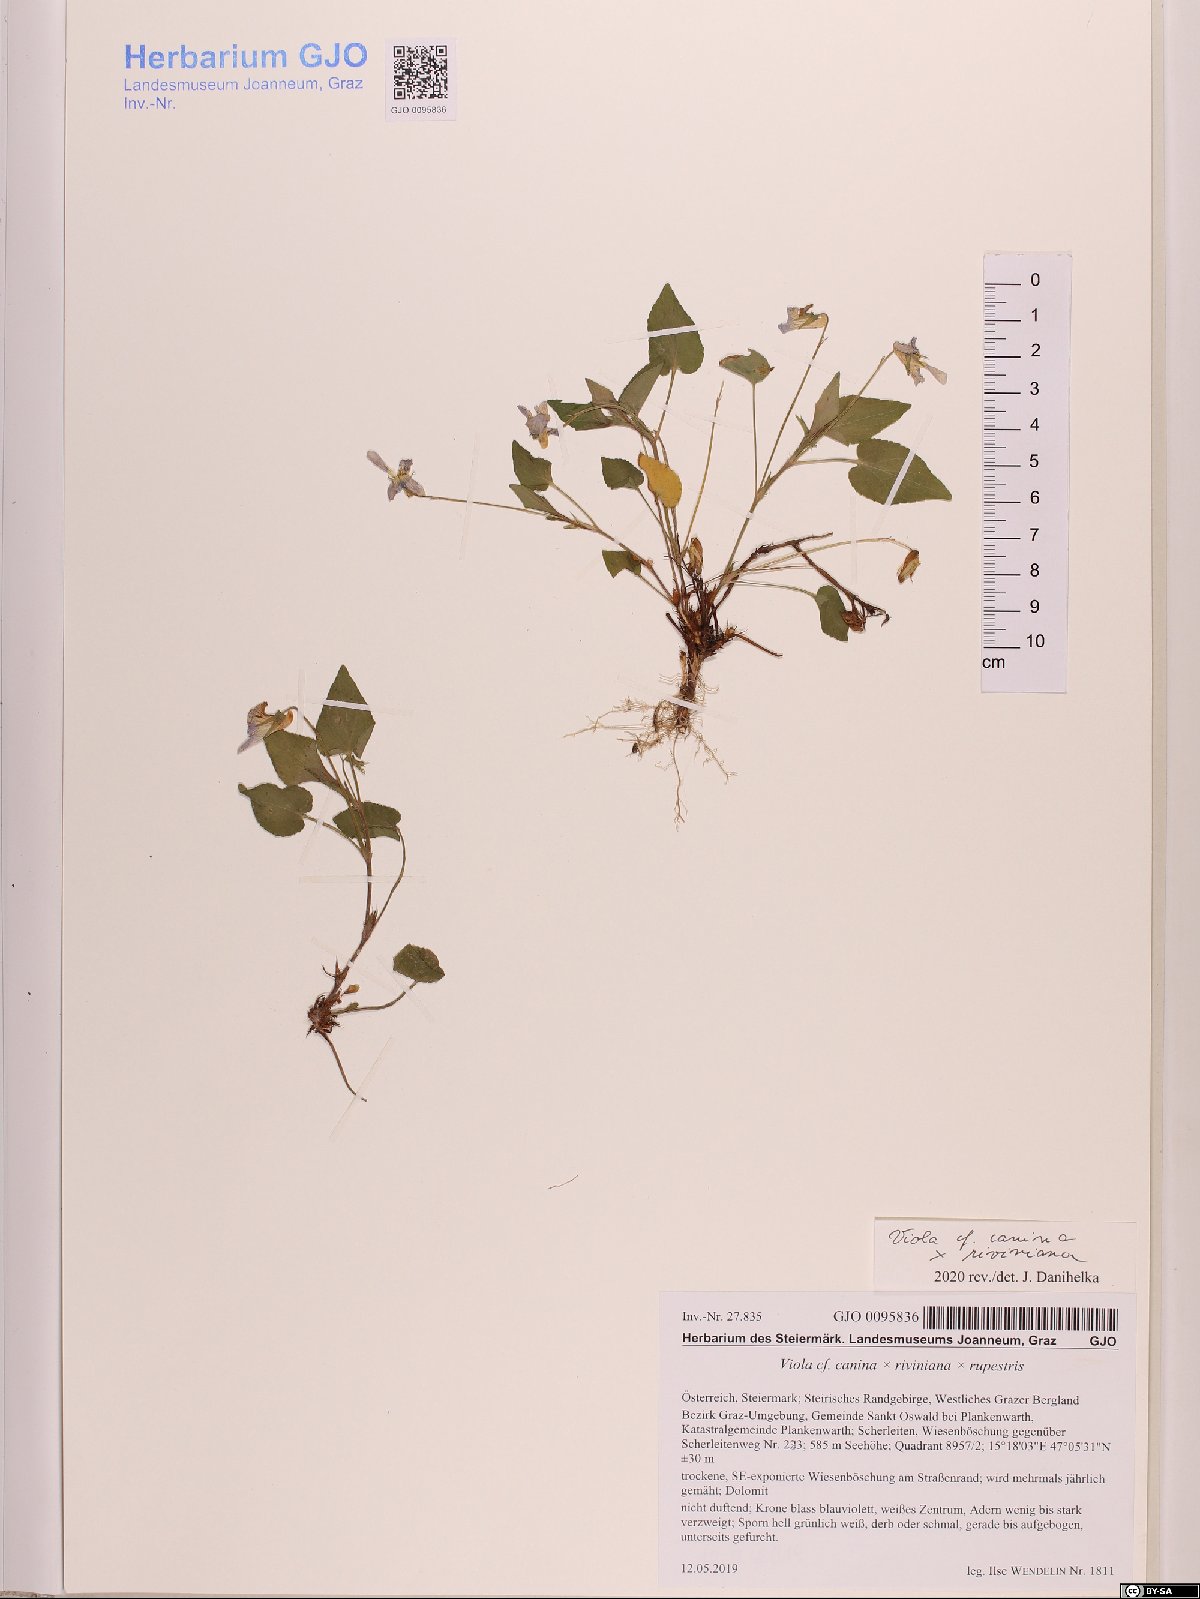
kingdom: Plantae
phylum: Tracheophyta
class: Magnoliopsida
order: Malpighiales
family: Violaceae
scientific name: Violaceae
